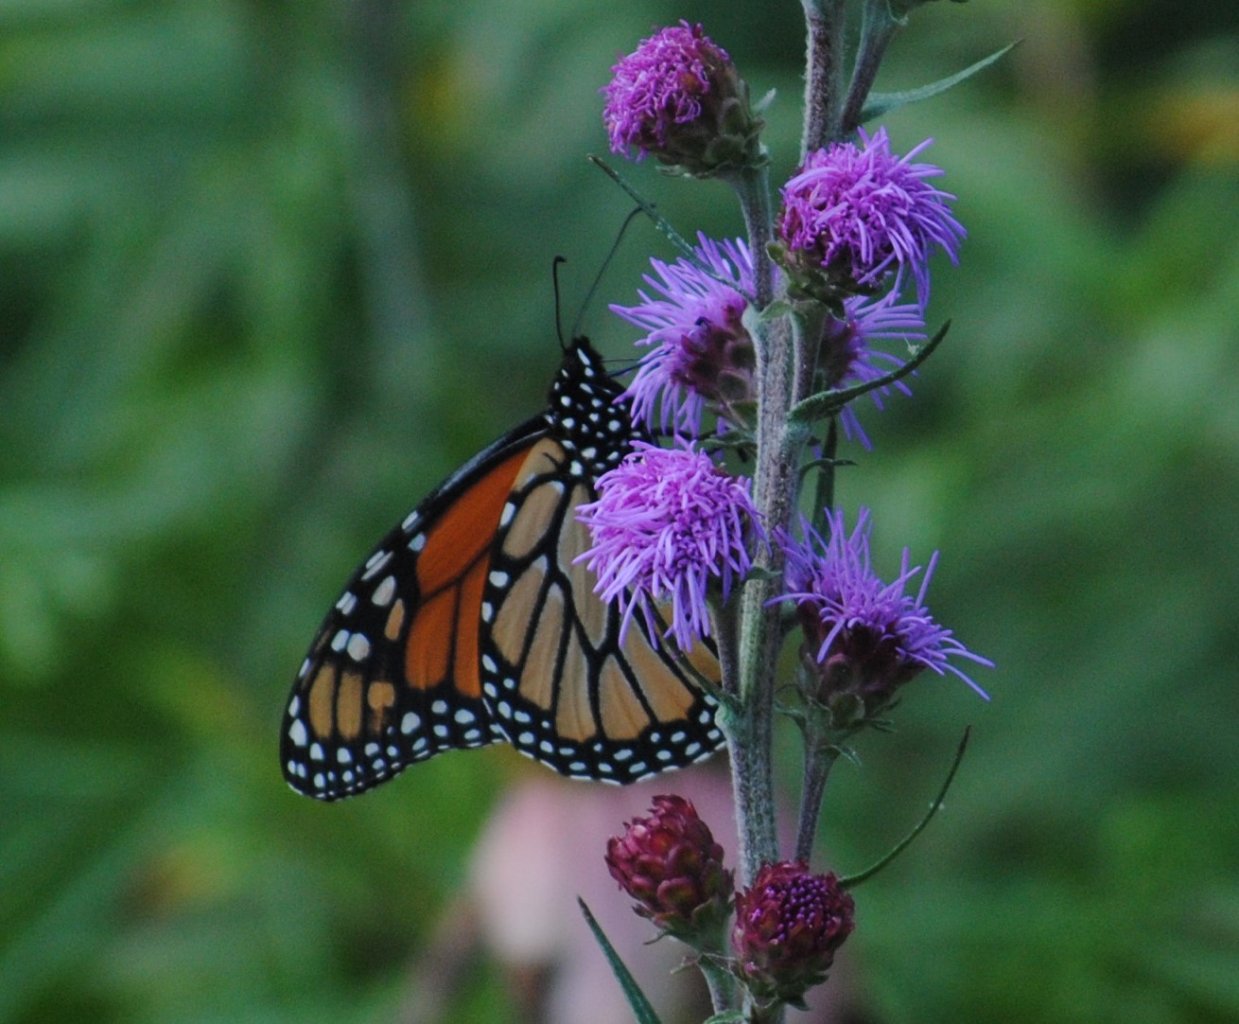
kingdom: Animalia
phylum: Arthropoda
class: Insecta
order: Lepidoptera
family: Nymphalidae
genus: Danaus
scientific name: Danaus plexippus
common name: Monarch
